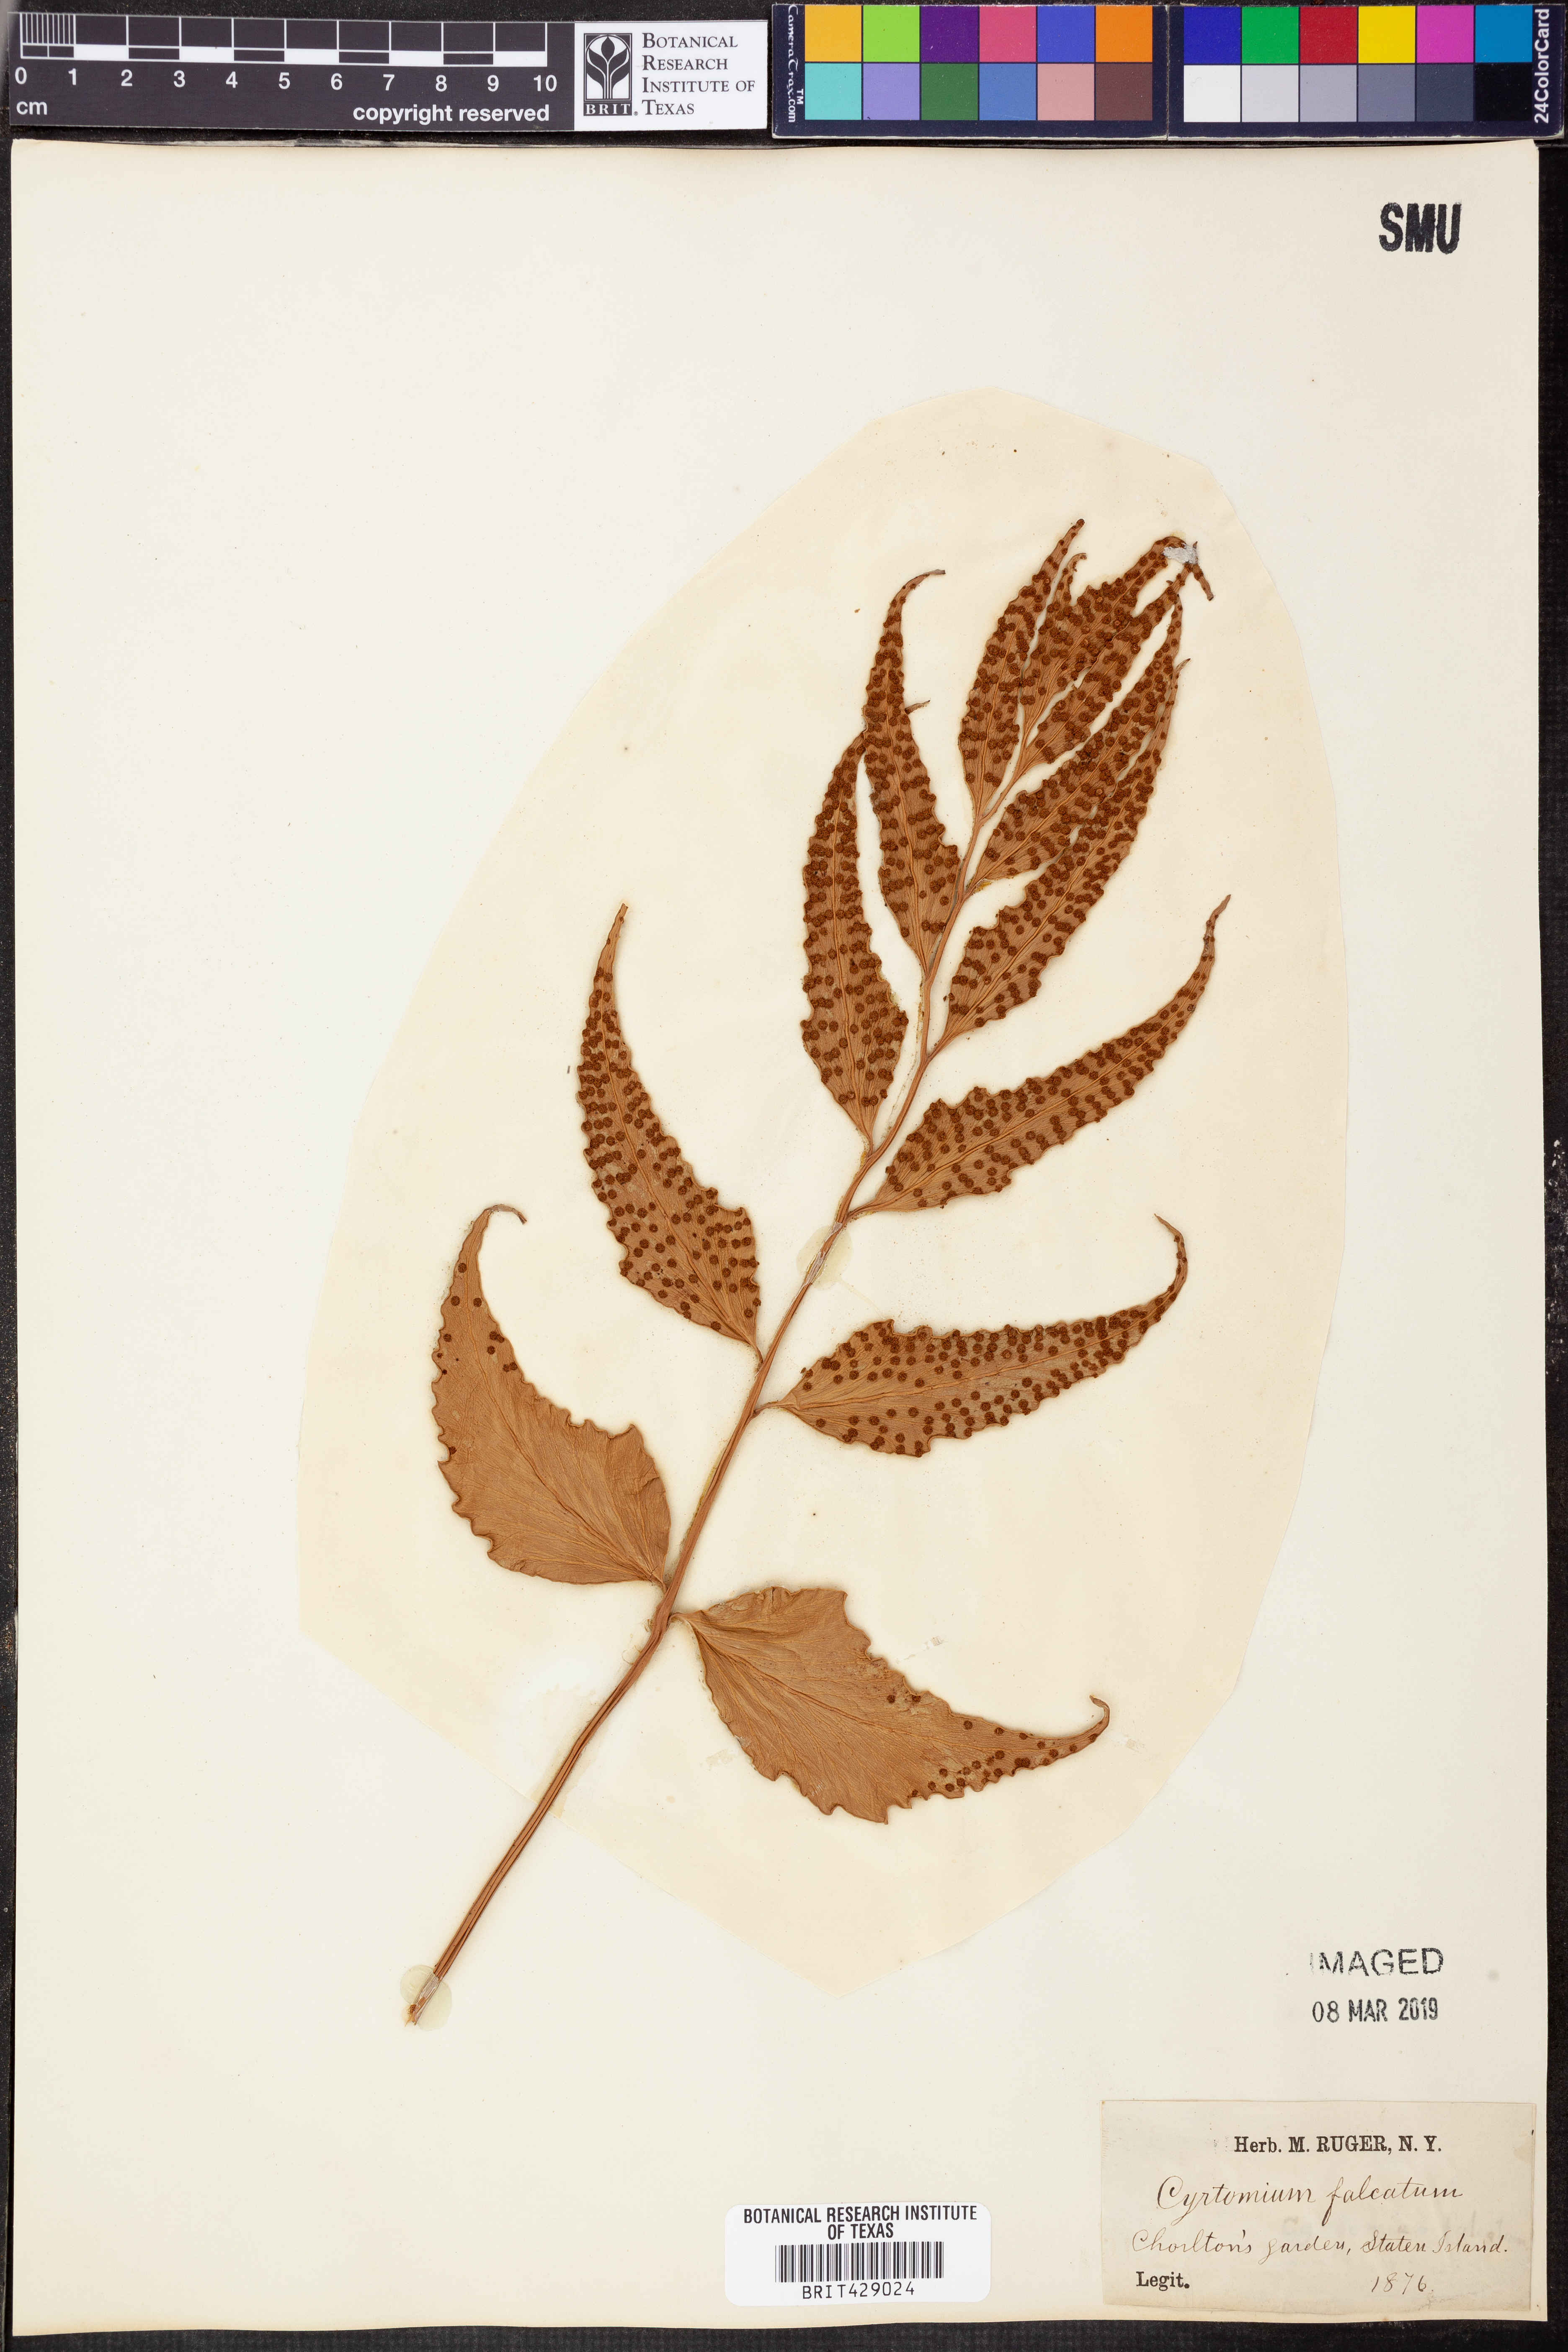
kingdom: Plantae
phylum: Tracheophyta
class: Polypodiopsida
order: Polypodiales
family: Dryopteridaceae
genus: Cyrtomium
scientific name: Cyrtomium falcatum
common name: House holly-fern
